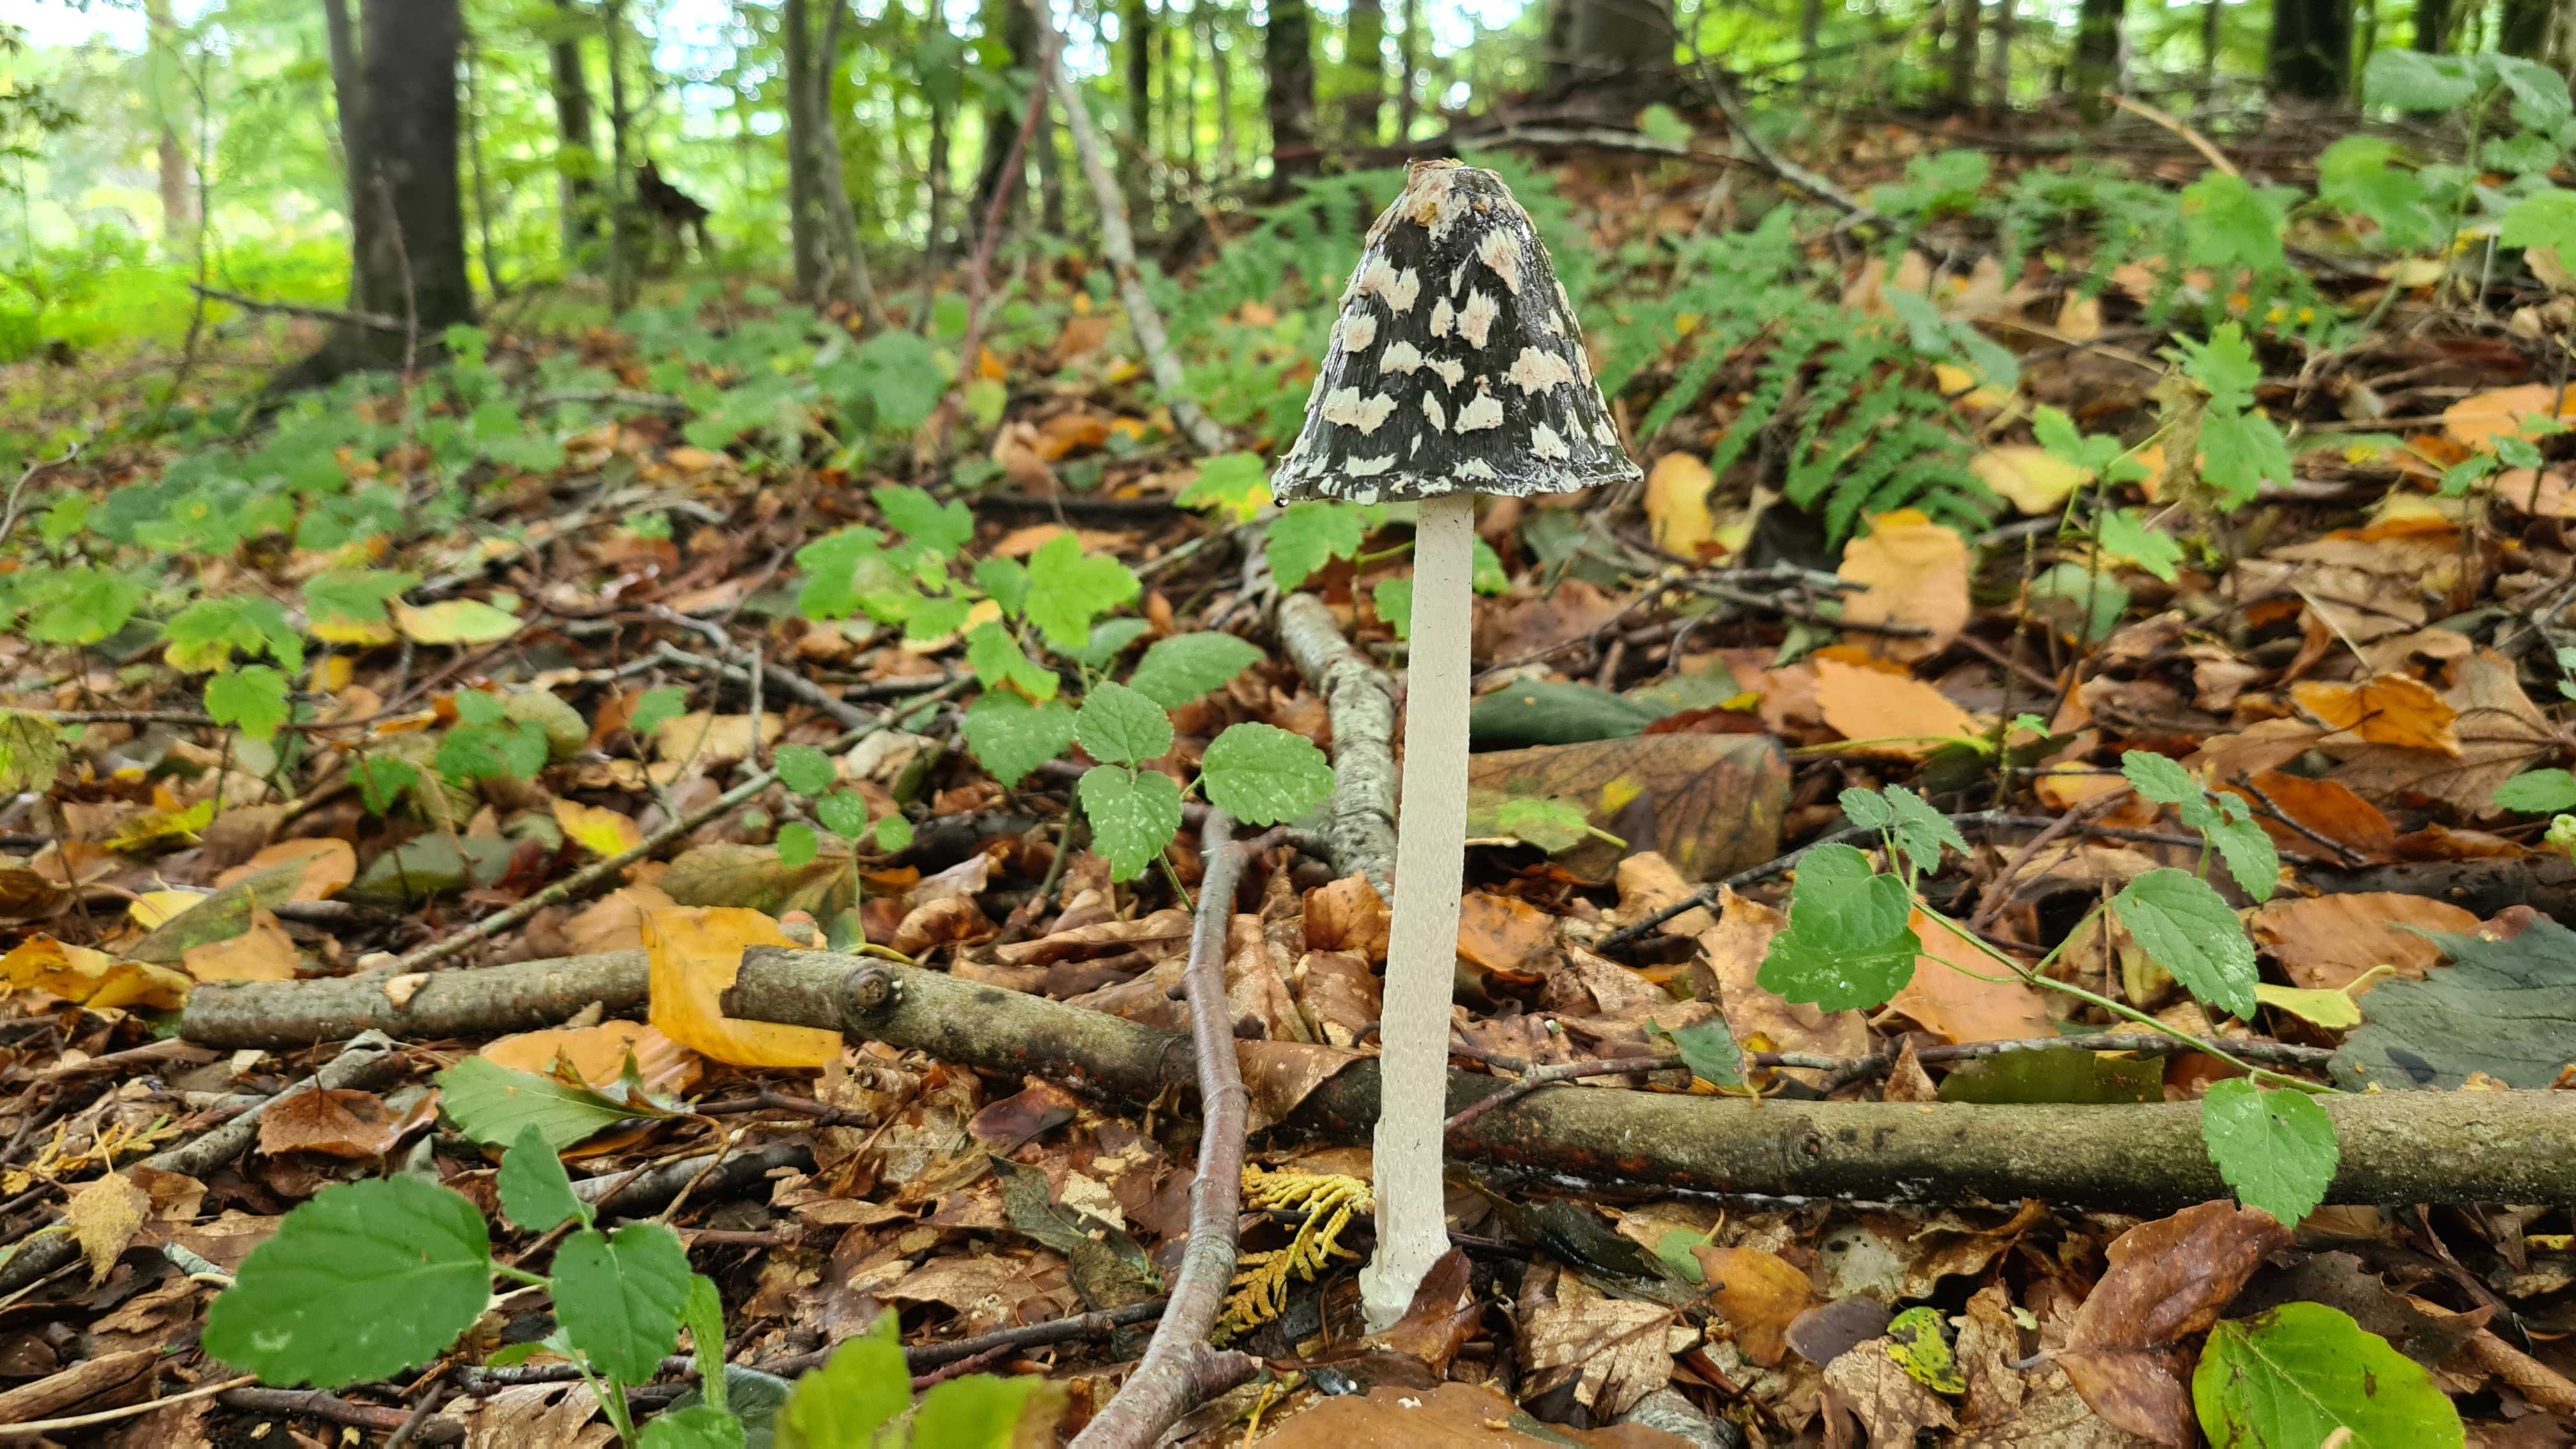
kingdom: Fungi
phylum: Basidiomycota
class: Agaricomycetes
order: Agaricales
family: Psathyrellaceae
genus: Coprinopsis
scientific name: Coprinopsis picacea
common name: skade-blækhat
